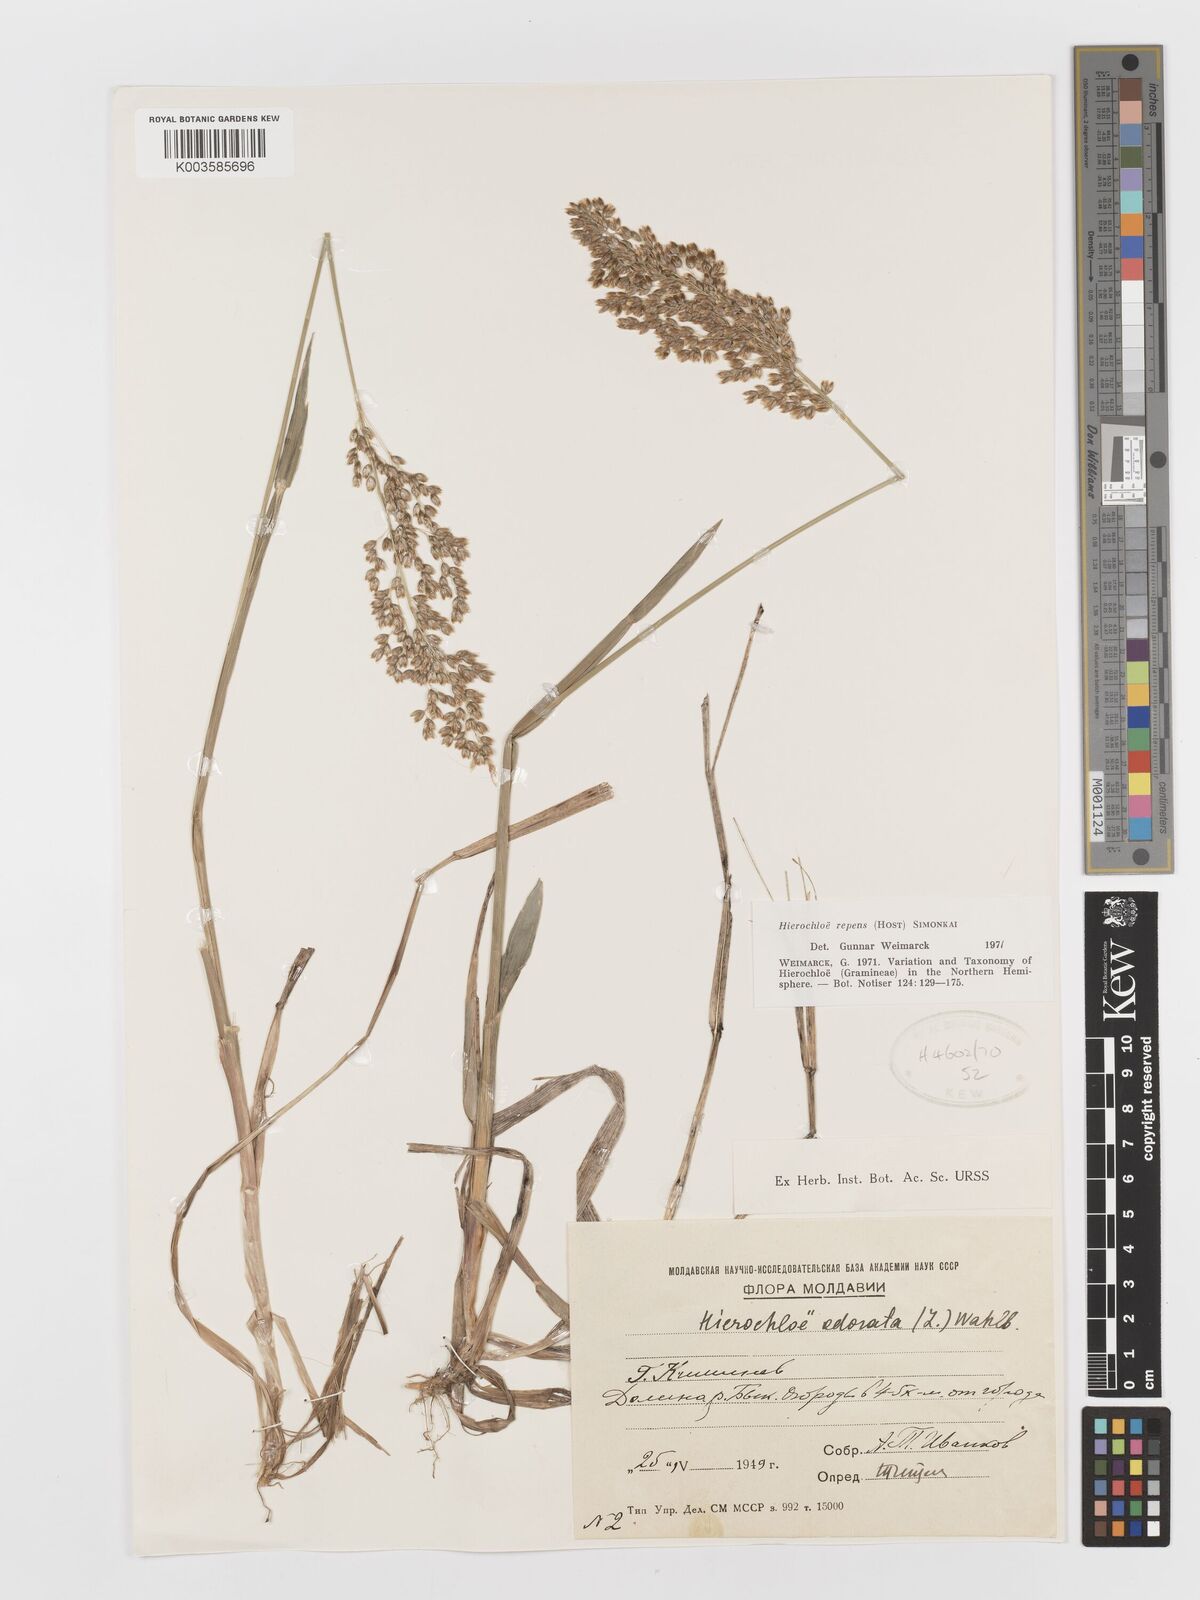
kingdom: Plantae
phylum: Tracheophyta
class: Liliopsida
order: Poales
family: Poaceae
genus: Anthoxanthum
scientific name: Anthoxanthum repens
